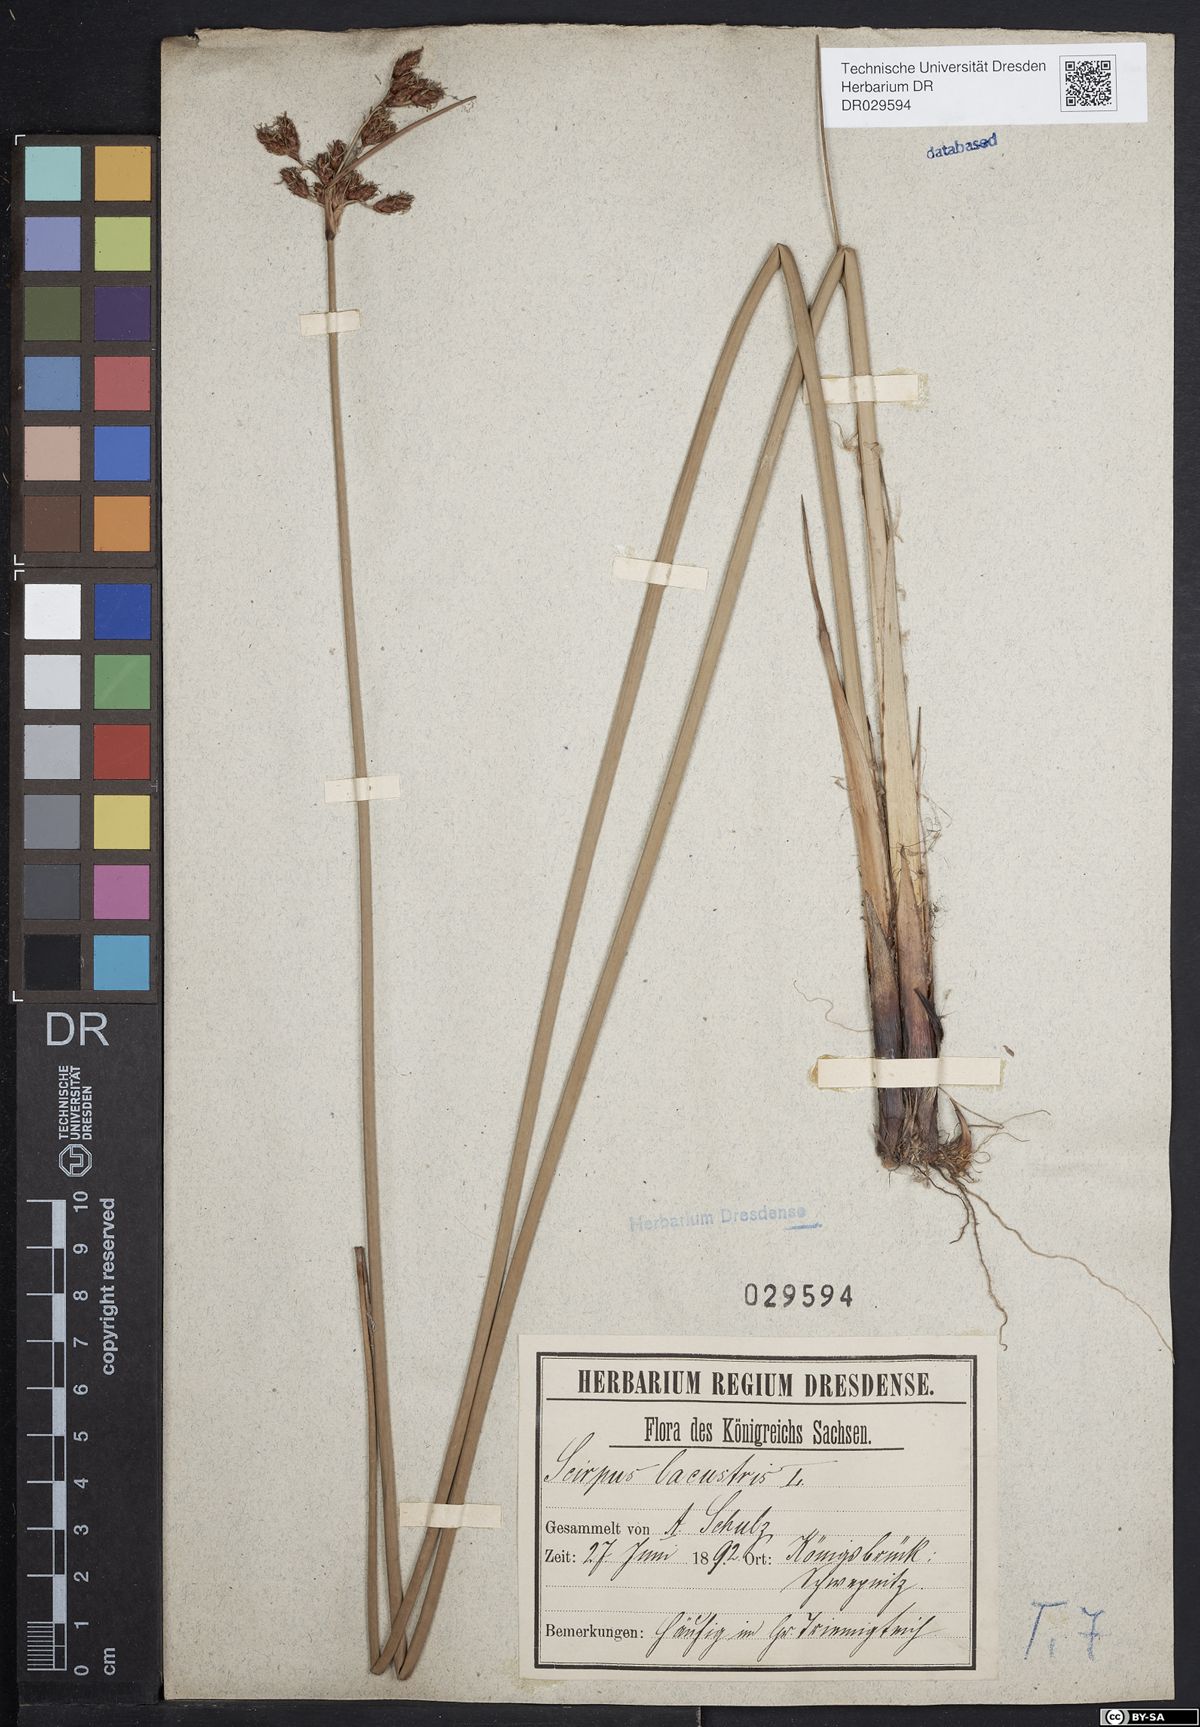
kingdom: Plantae
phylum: Tracheophyta
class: Liliopsida
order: Poales
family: Cyperaceae
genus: Schoenoplectus
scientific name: Schoenoplectus lacustris
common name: Common club-rush
